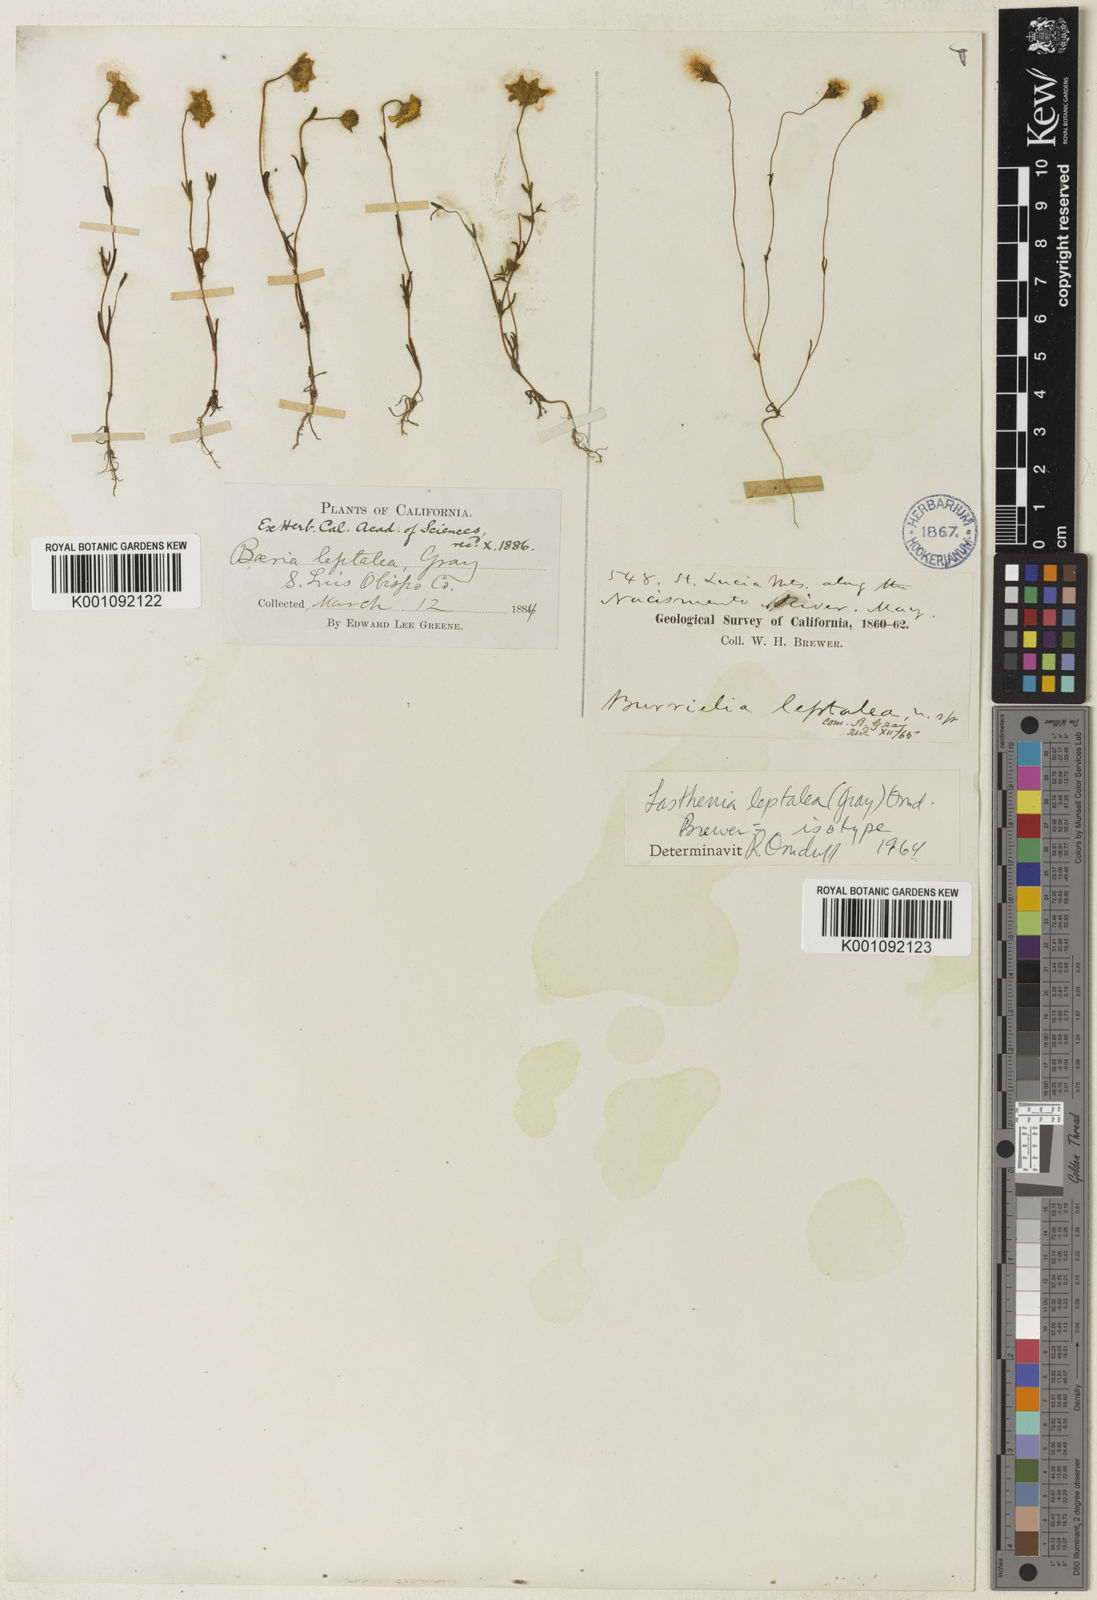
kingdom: Plantae
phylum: Tracheophyta
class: Magnoliopsida
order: Asterales
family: Asteraceae
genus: Lasthenia
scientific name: Lasthenia leptalea
